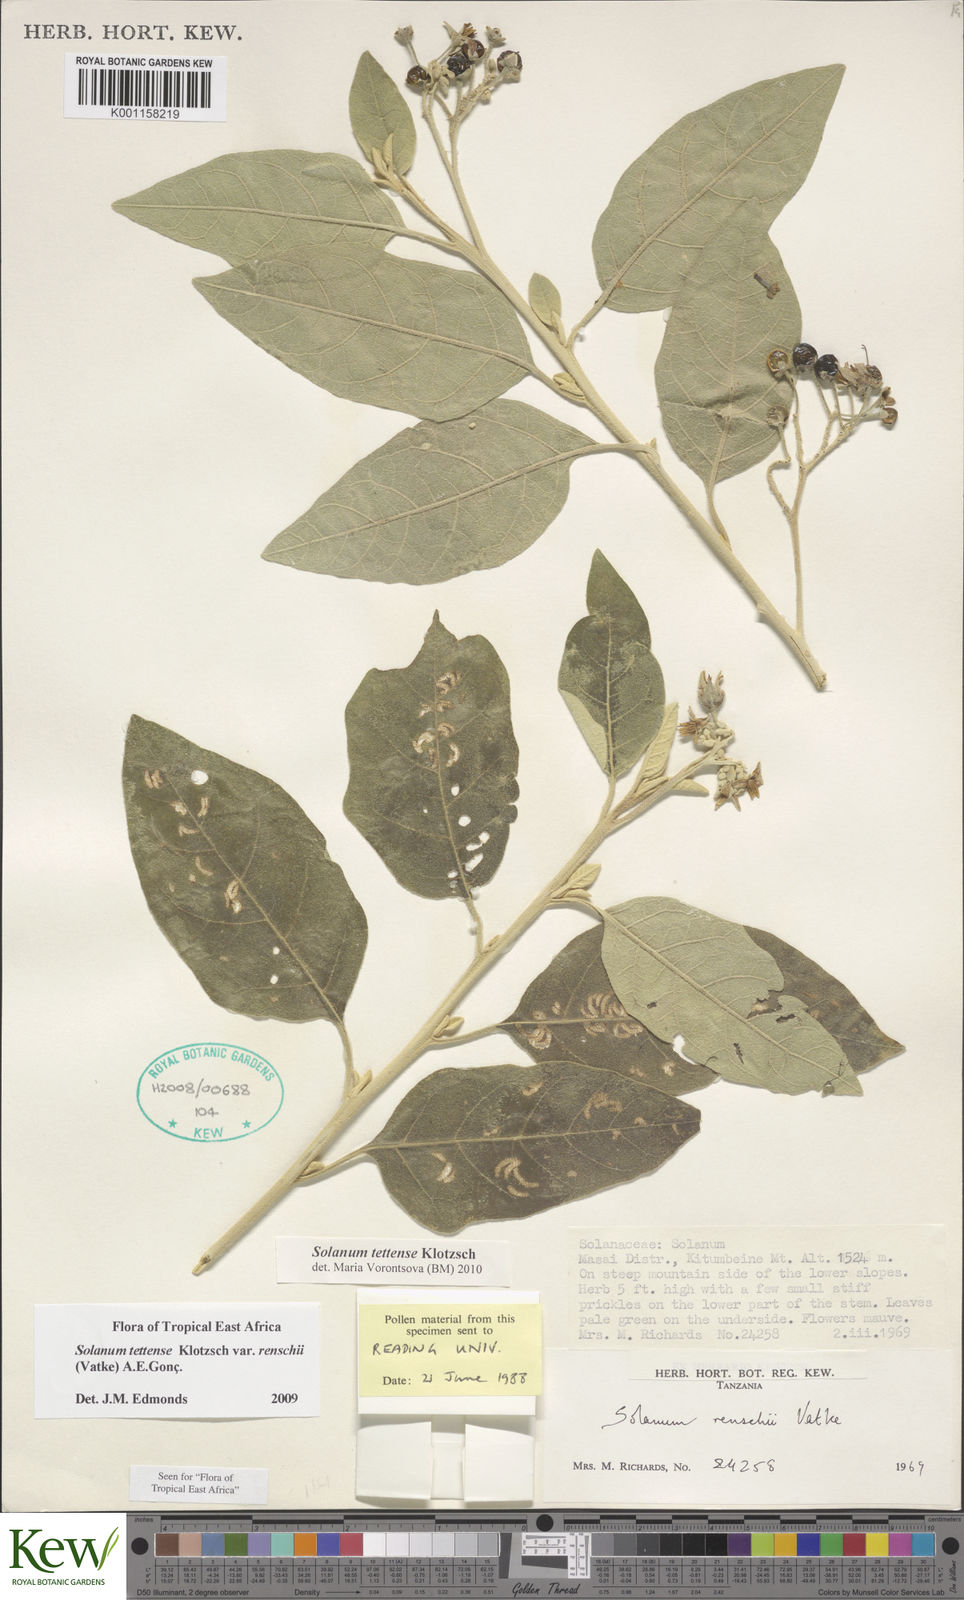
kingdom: Plantae
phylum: Tracheophyta
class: Magnoliopsida
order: Solanales
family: Solanaceae
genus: Solanum
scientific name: Solanum tettense
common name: Mozambique bitter apple
